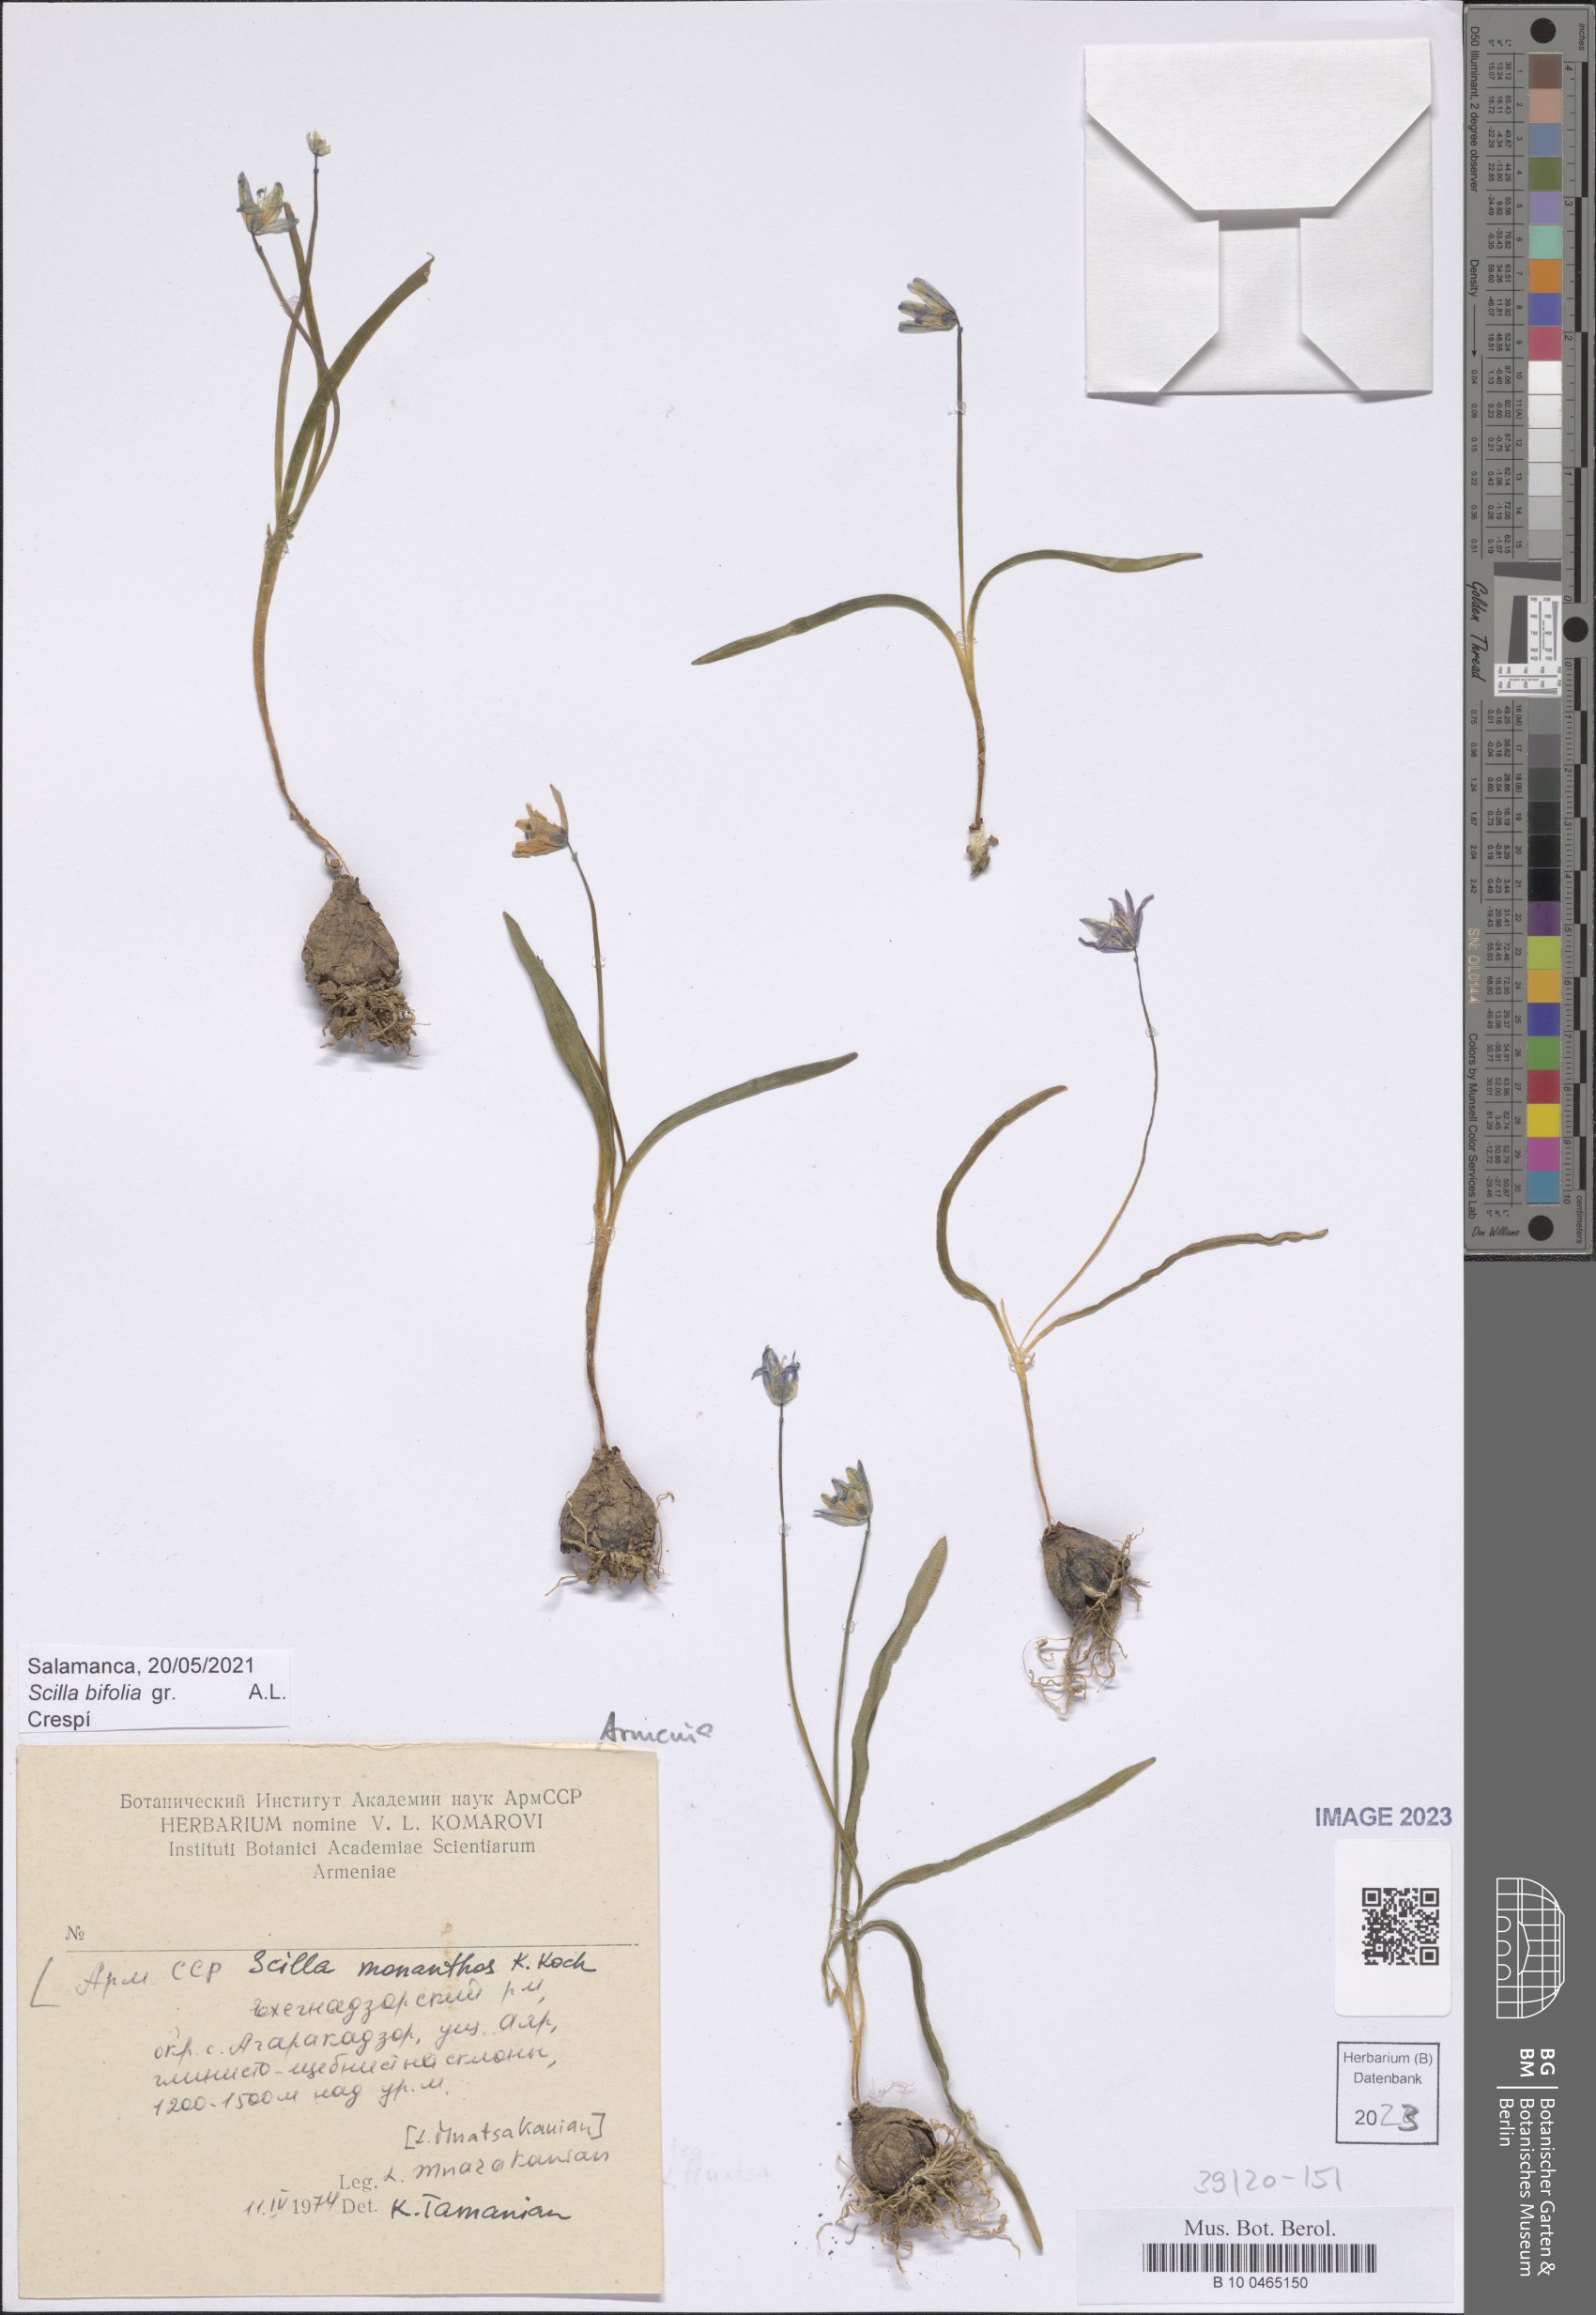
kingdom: Plantae
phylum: Tracheophyta
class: Liliopsida
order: Asparagales
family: Asparagaceae
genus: Scilla
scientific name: Scilla monanthos
